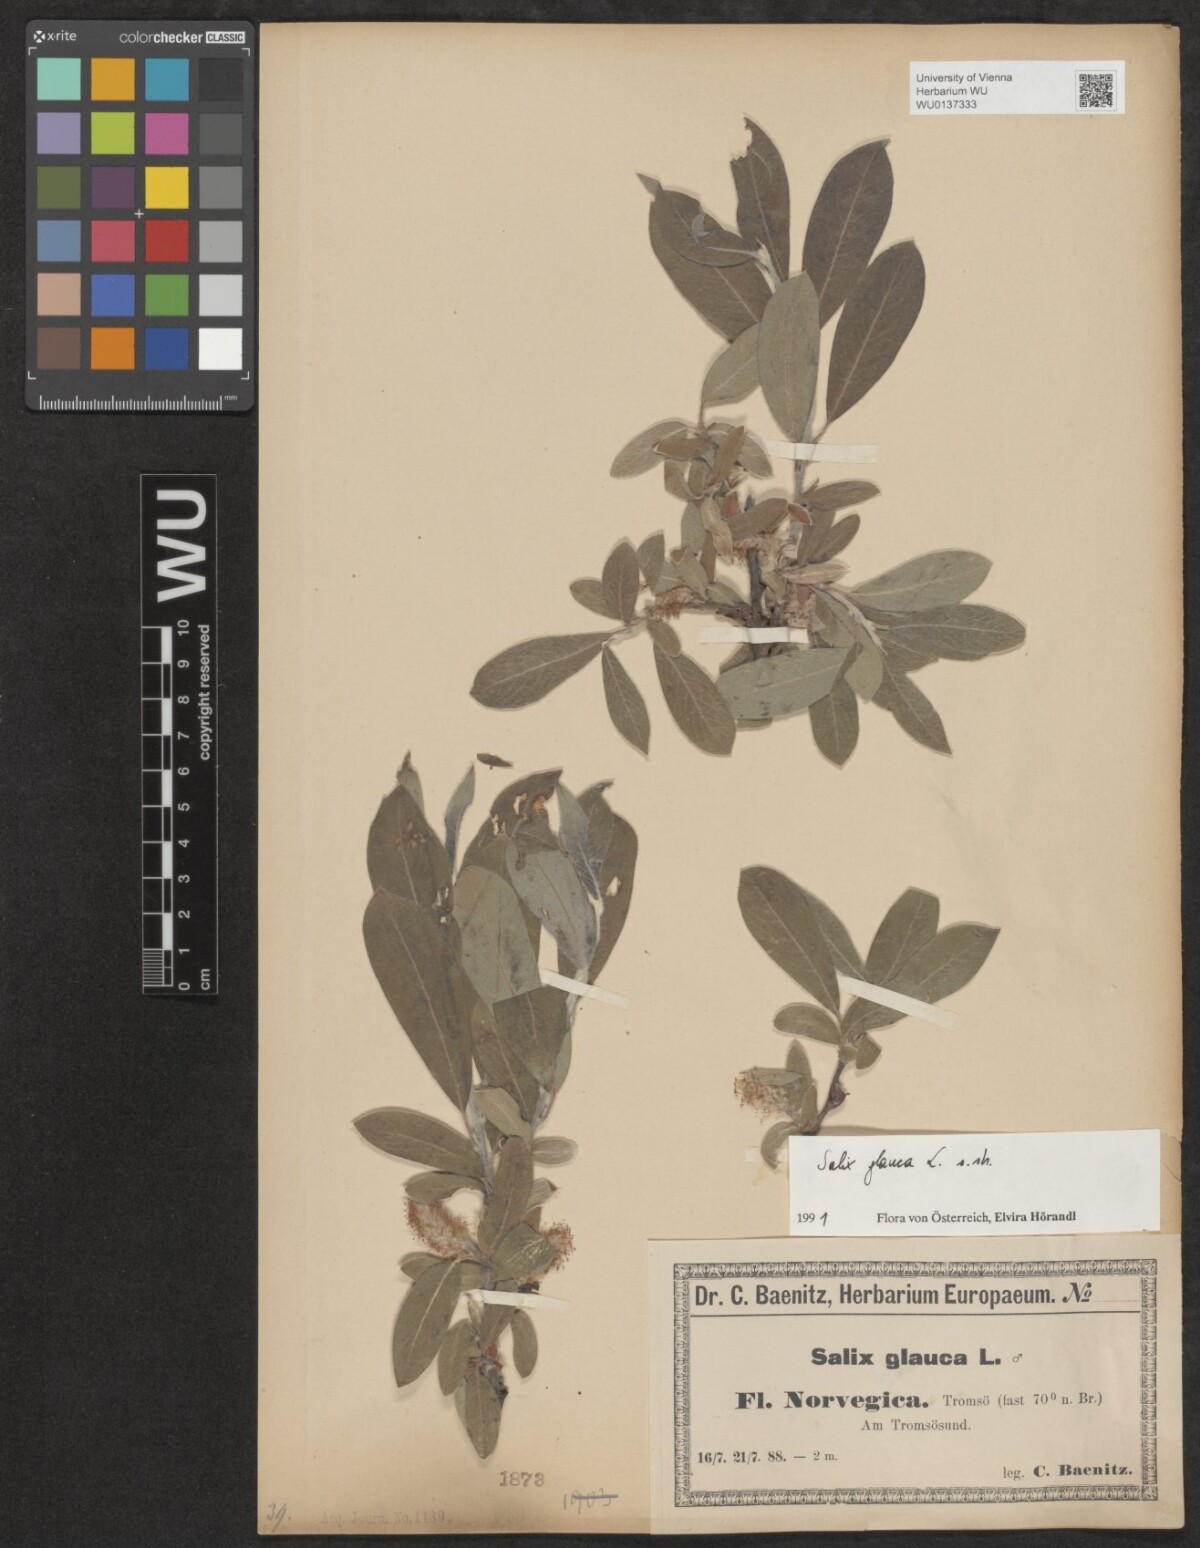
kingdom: Plantae
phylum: Tracheophyta
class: Magnoliopsida
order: Malpighiales
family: Salicaceae
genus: Salix
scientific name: Salix glauca
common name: Glaucous willow
